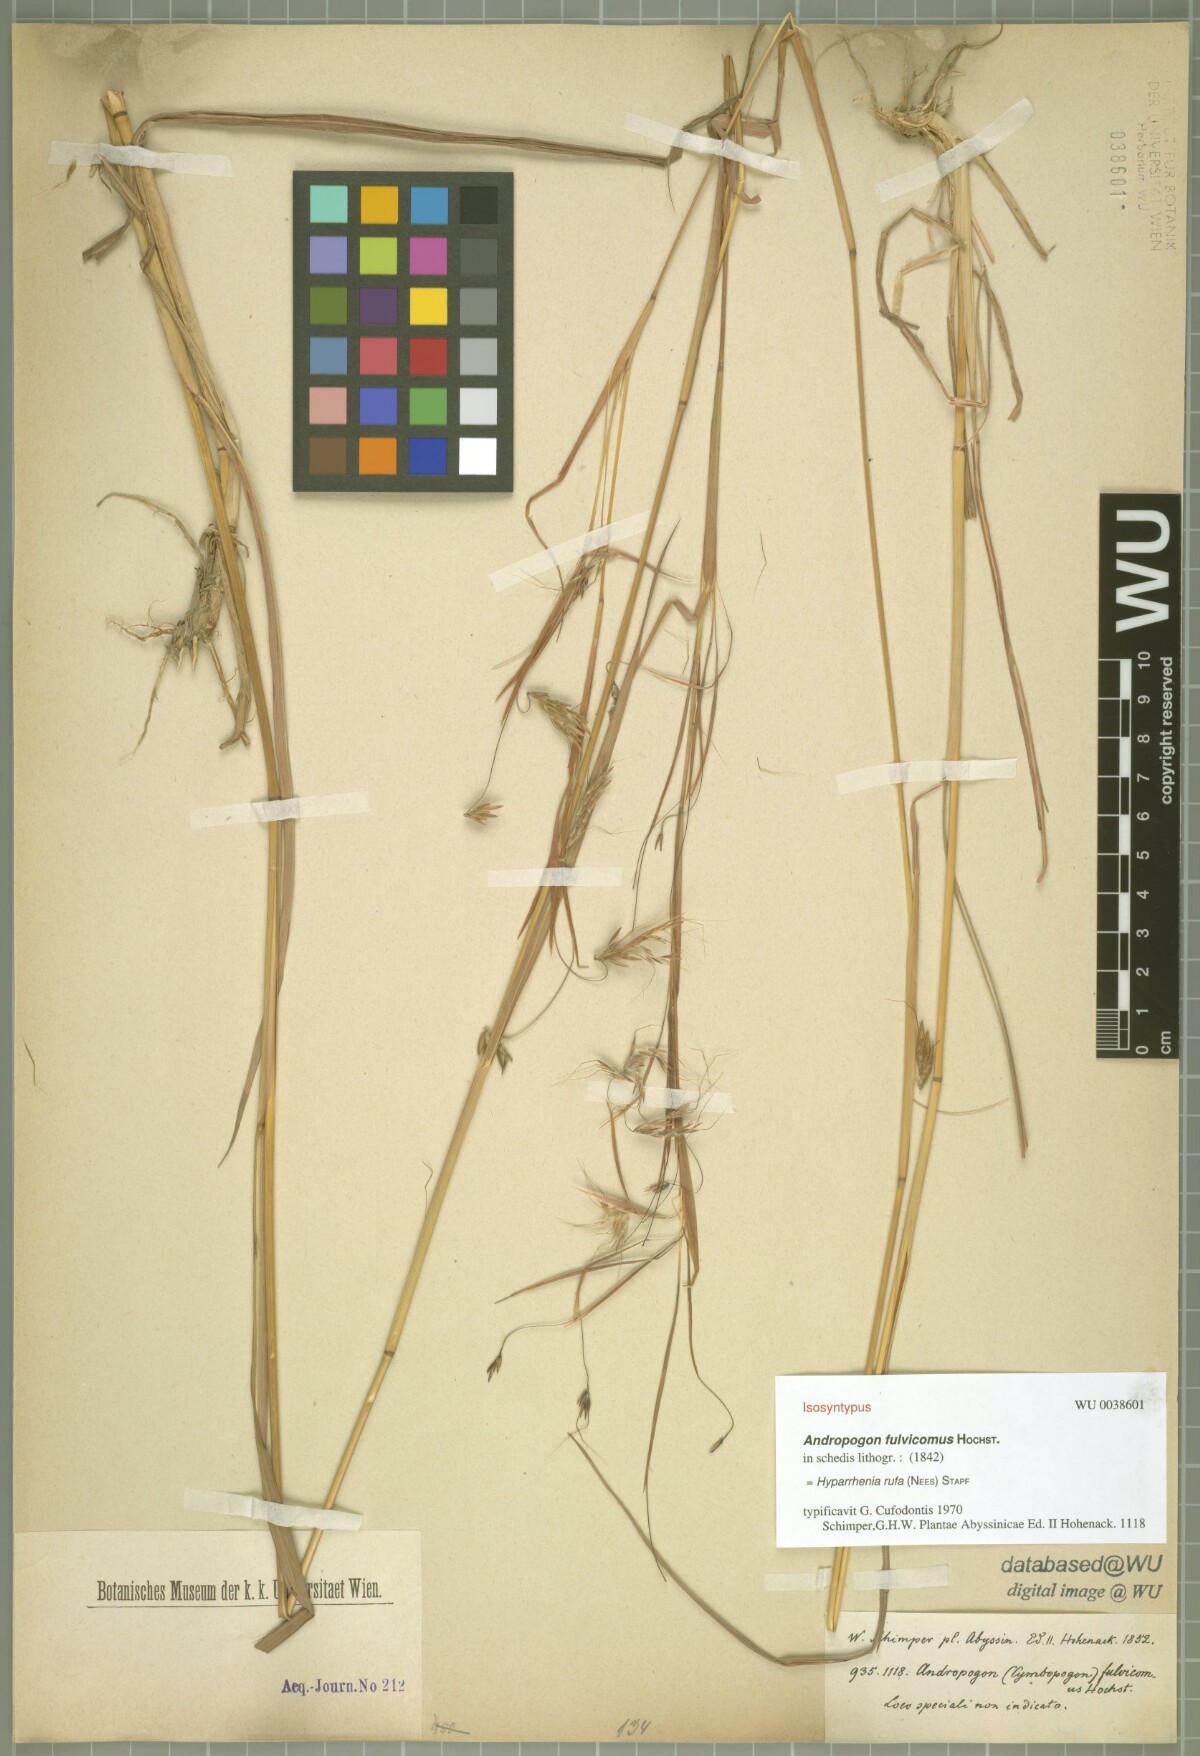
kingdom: Plantae
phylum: Tracheophyta
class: Liliopsida
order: Poales
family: Poaceae
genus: Hyparrhenia
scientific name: Hyparrhenia rufa
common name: Jaraguagrass
